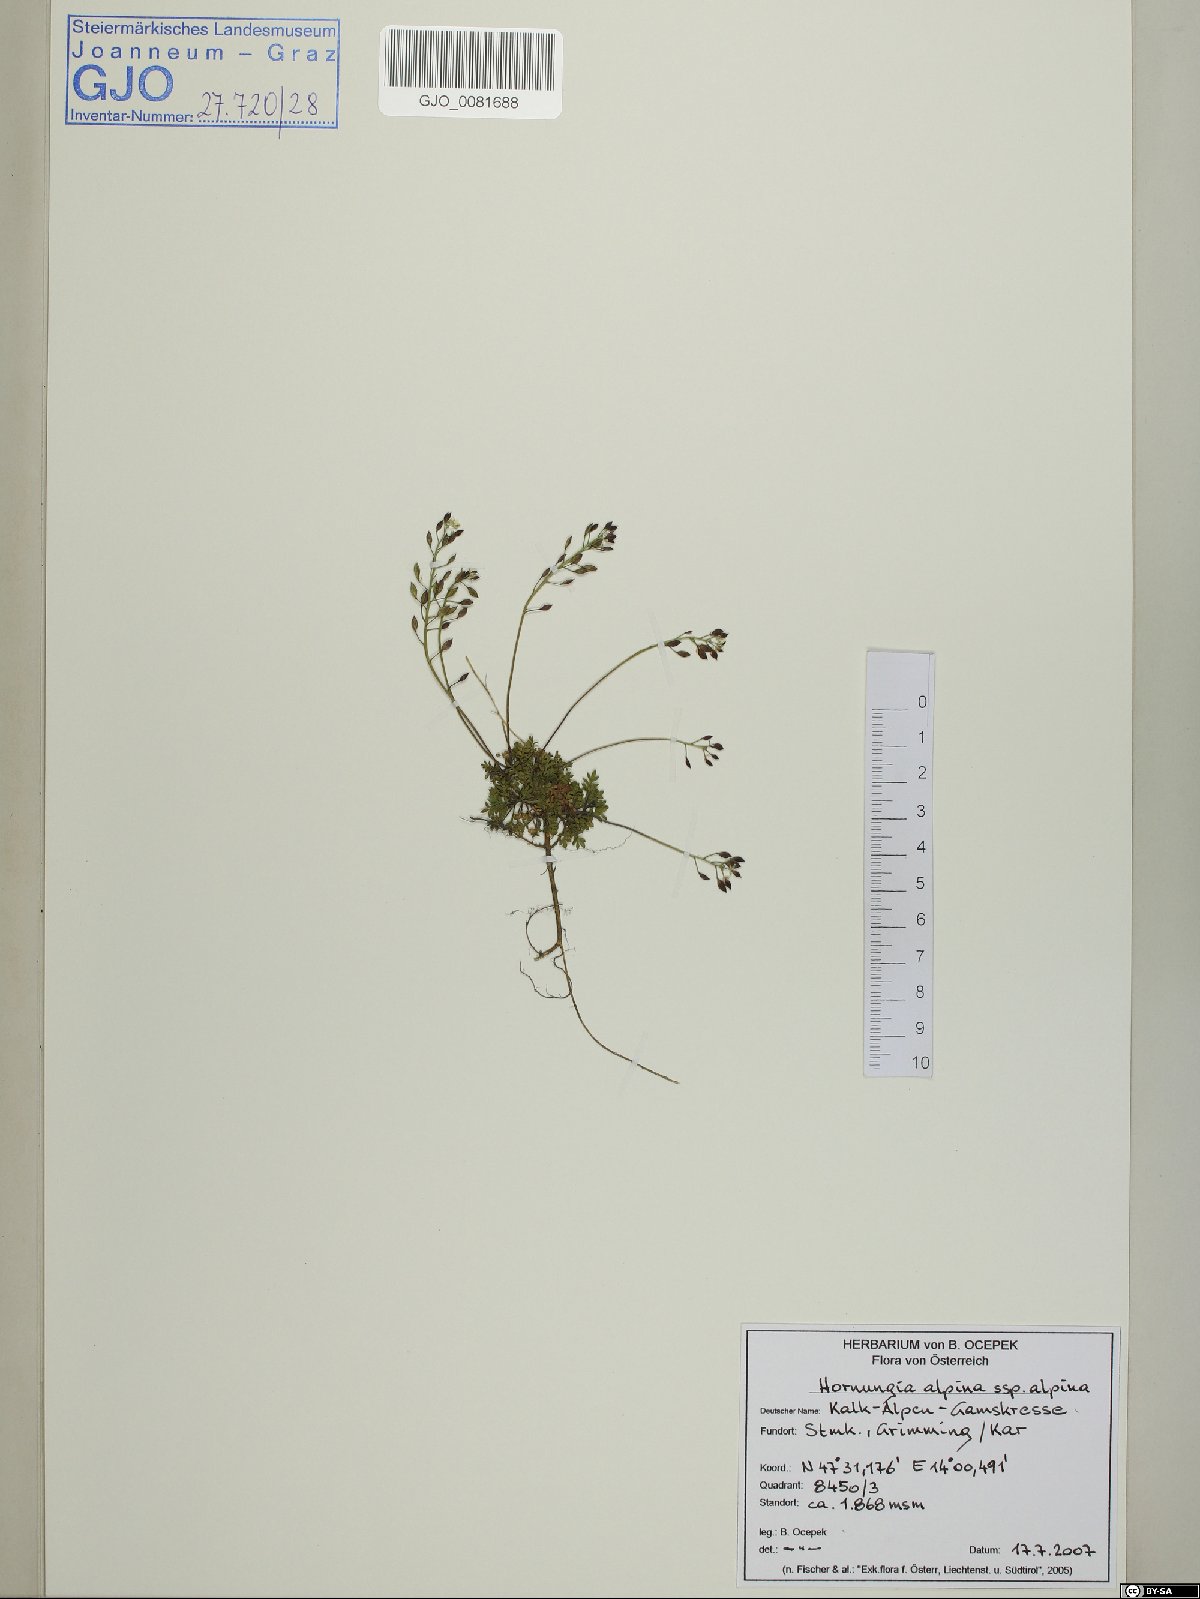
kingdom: Plantae
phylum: Tracheophyta
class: Magnoliopsida
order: Brassicales
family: Brassicaceae
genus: Hornungia
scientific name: Hornungia alpina
